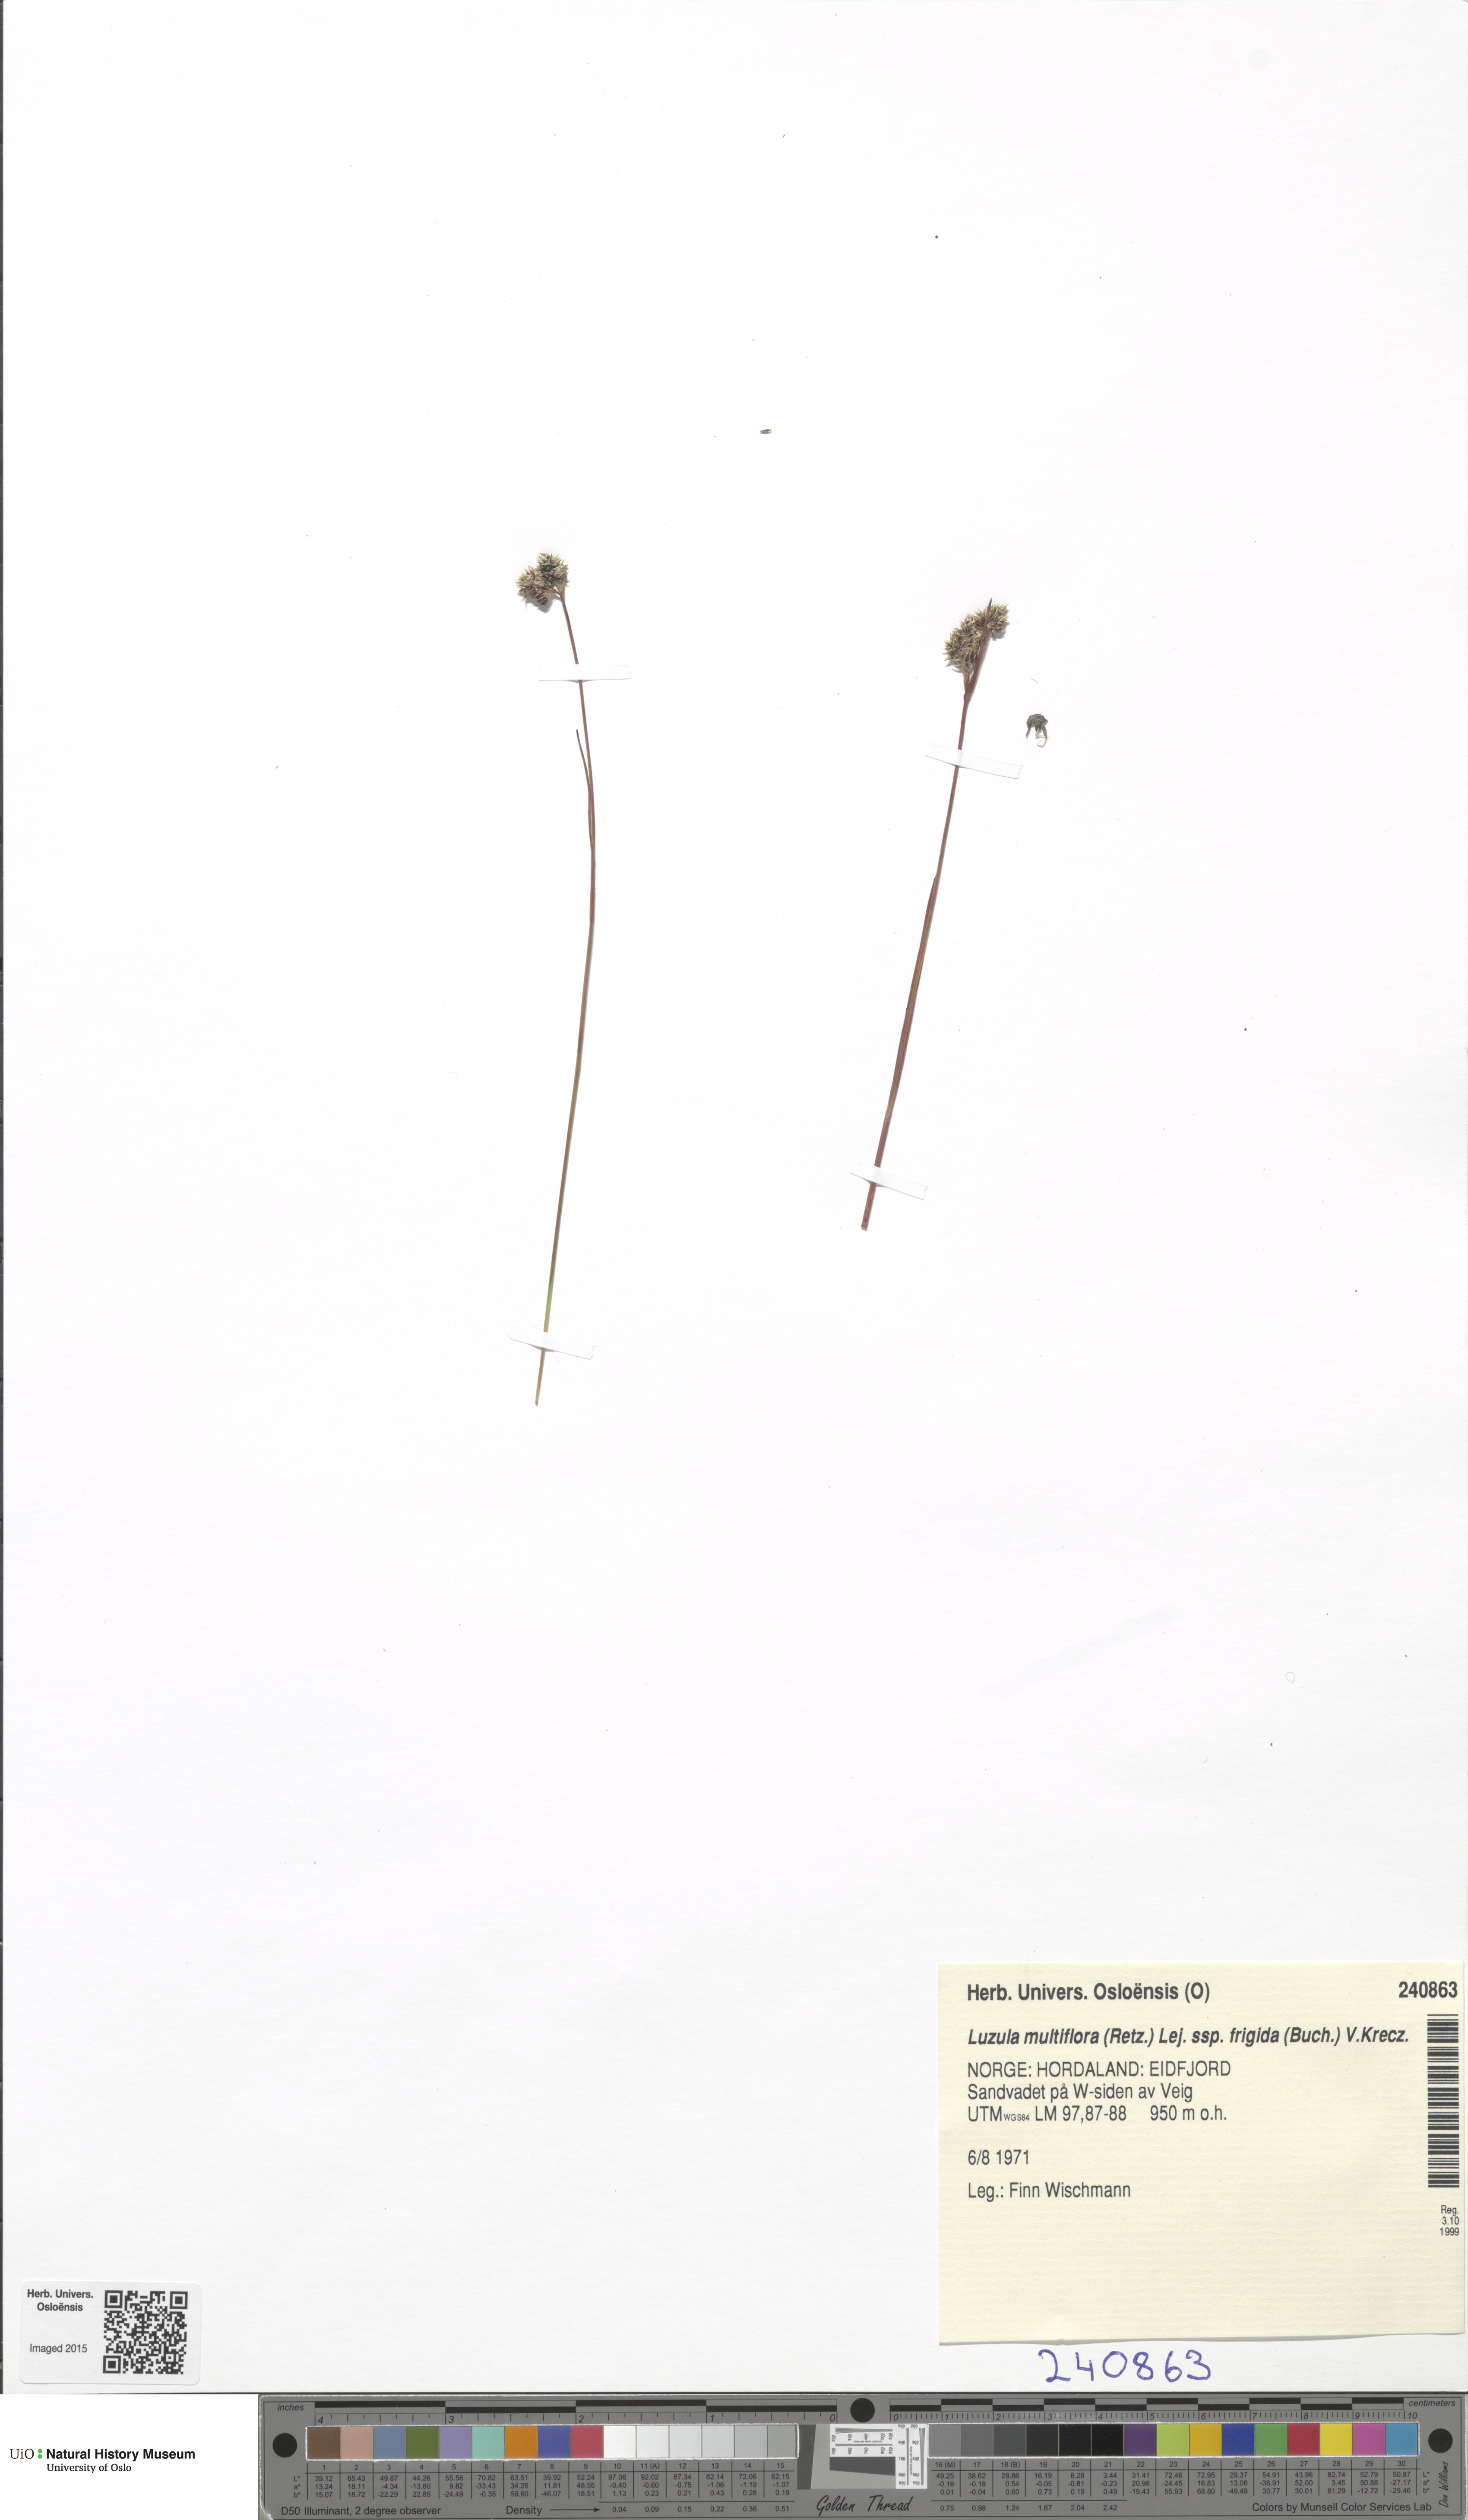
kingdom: Plantae
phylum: Tracheophyta
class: Liliopsida
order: Poales
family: Juncaceae
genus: Luzula
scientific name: Luzula multiflora
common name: Heath wood-rush
